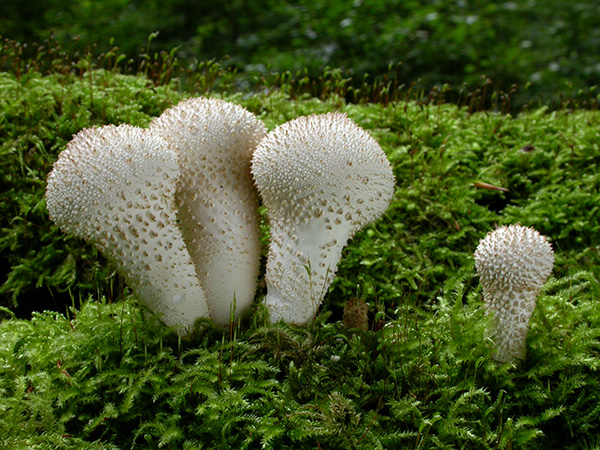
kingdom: Fungi
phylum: Basidiomycota
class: Agaricomycetes
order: Agaricales
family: Lycoperdaceae
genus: Lycoperdon
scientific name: Lycoperdon perlatum
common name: krystal-støvbold
